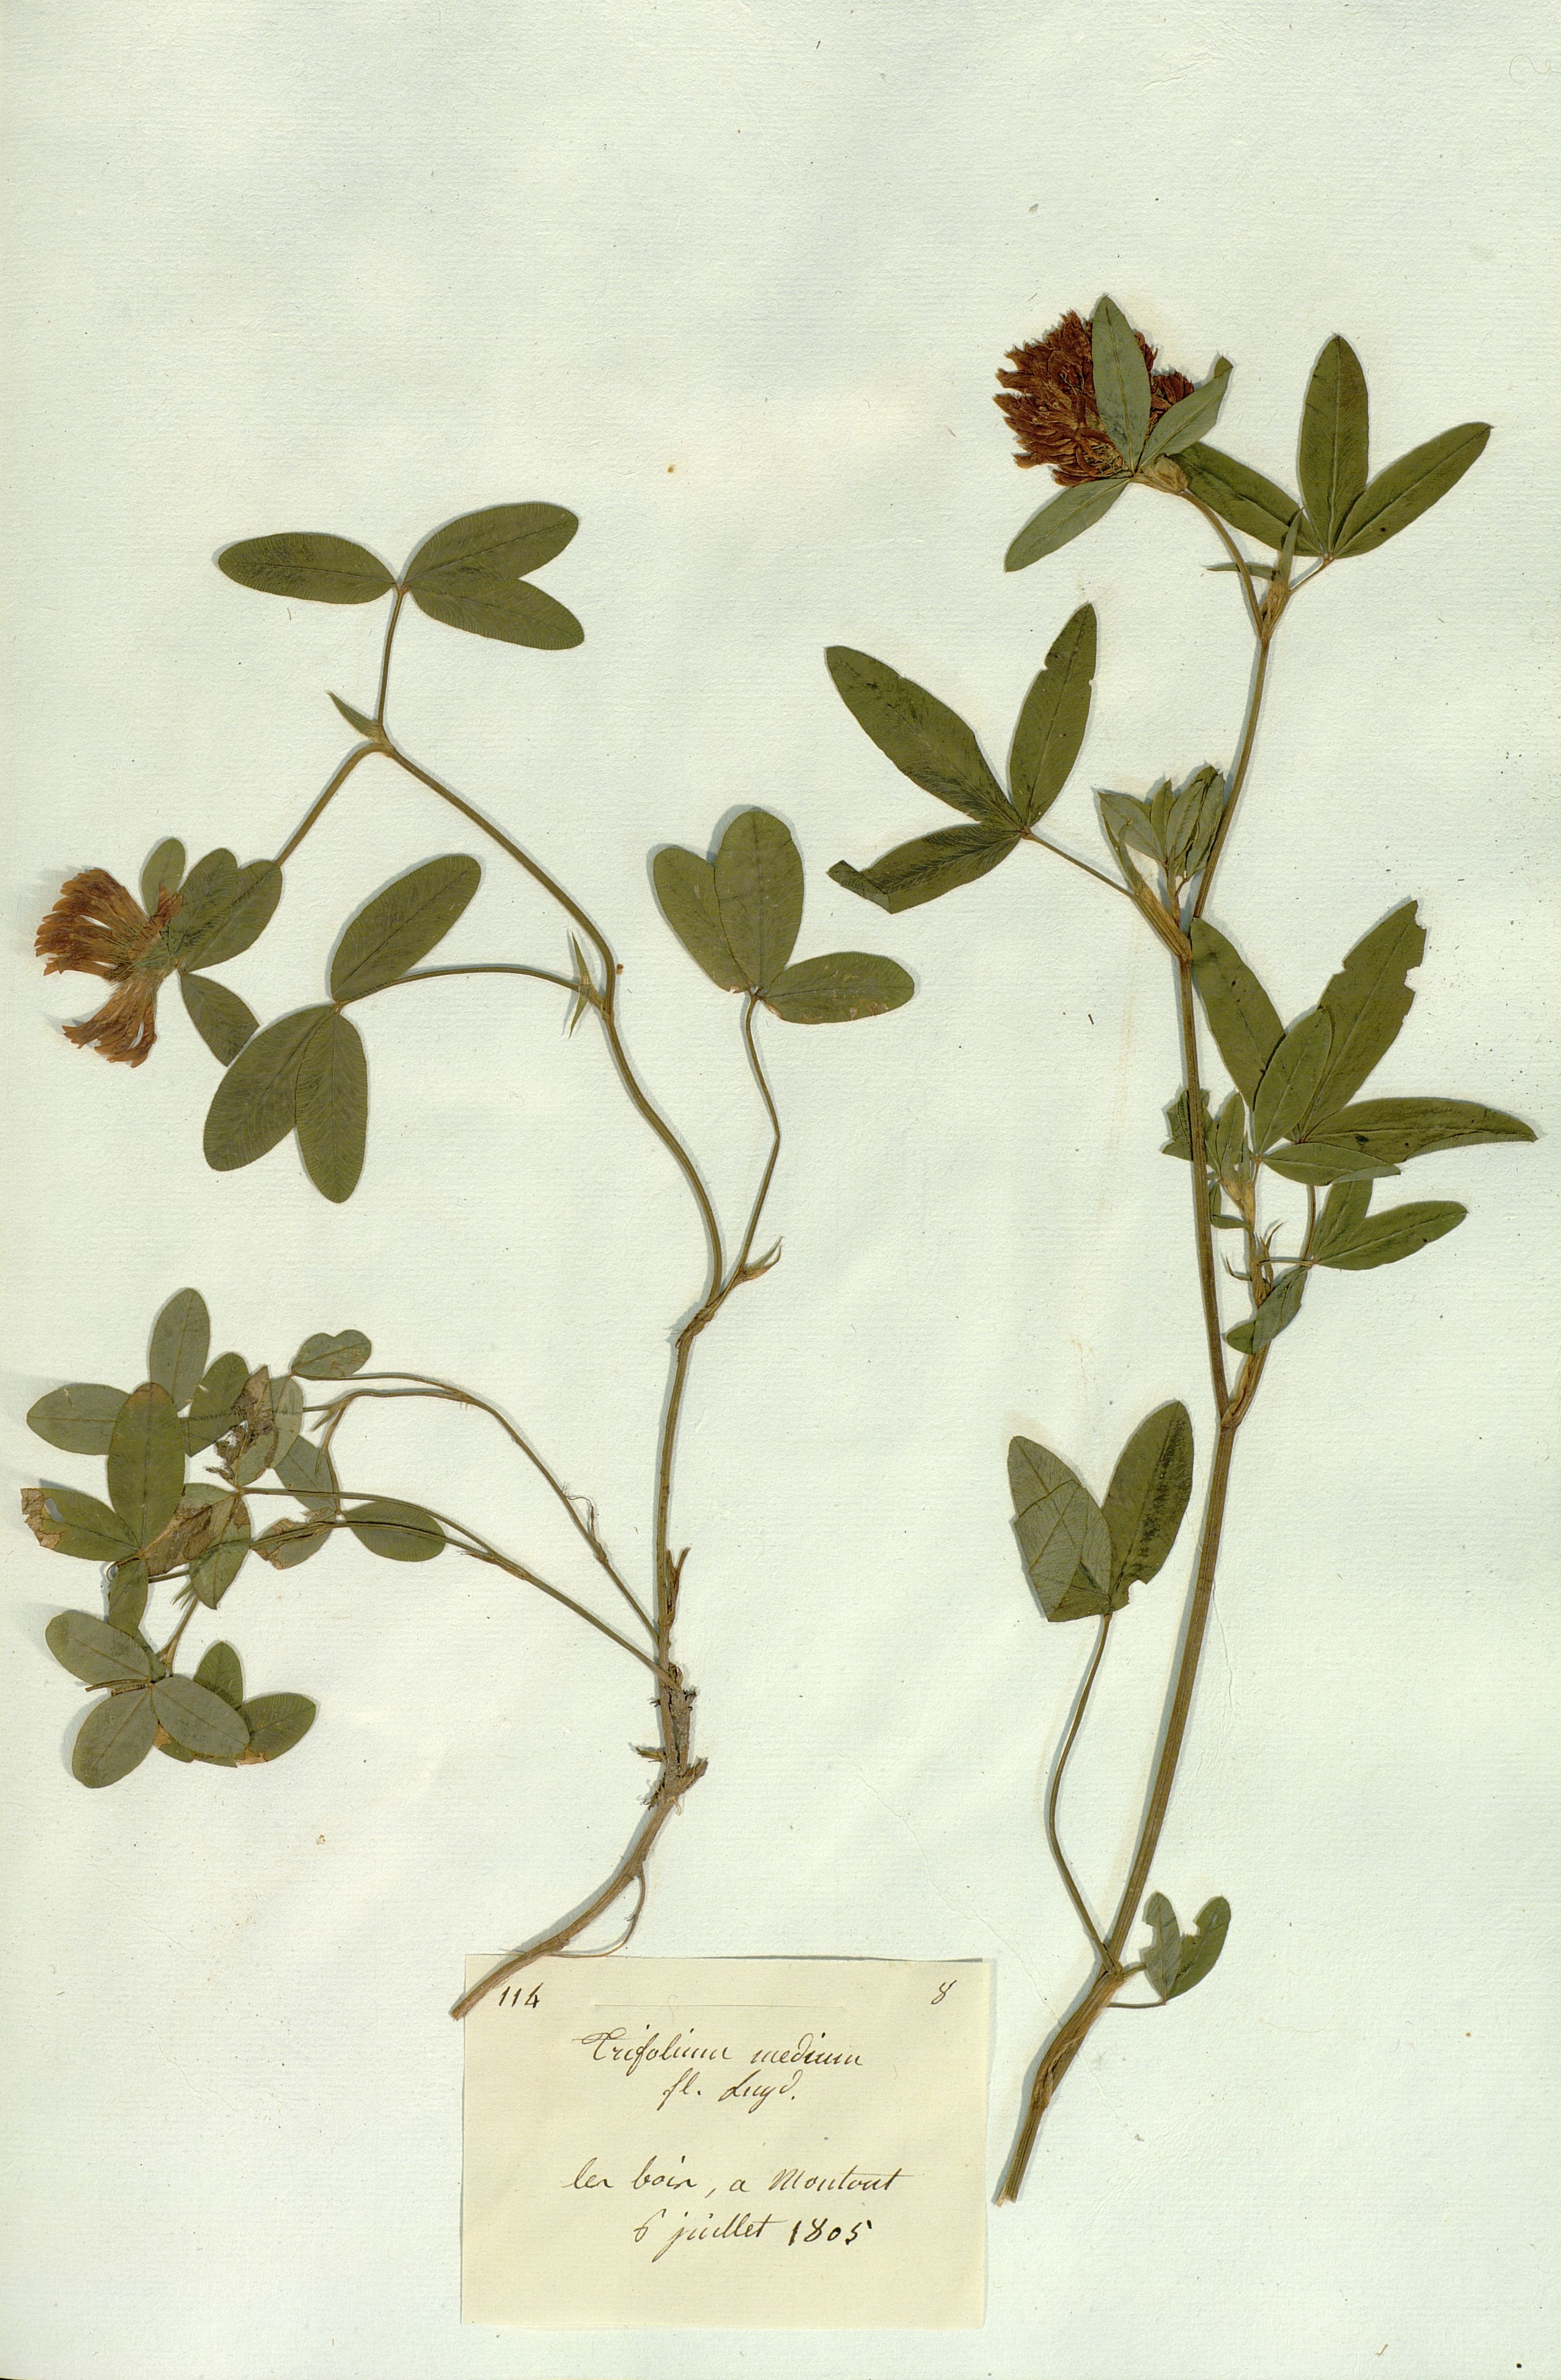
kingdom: Plantae
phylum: Tracheophyta
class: Magnoliopsida
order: Fabales
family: Fabaceae
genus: Trifolium
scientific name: Trifolium medium
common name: Zigzag clover
